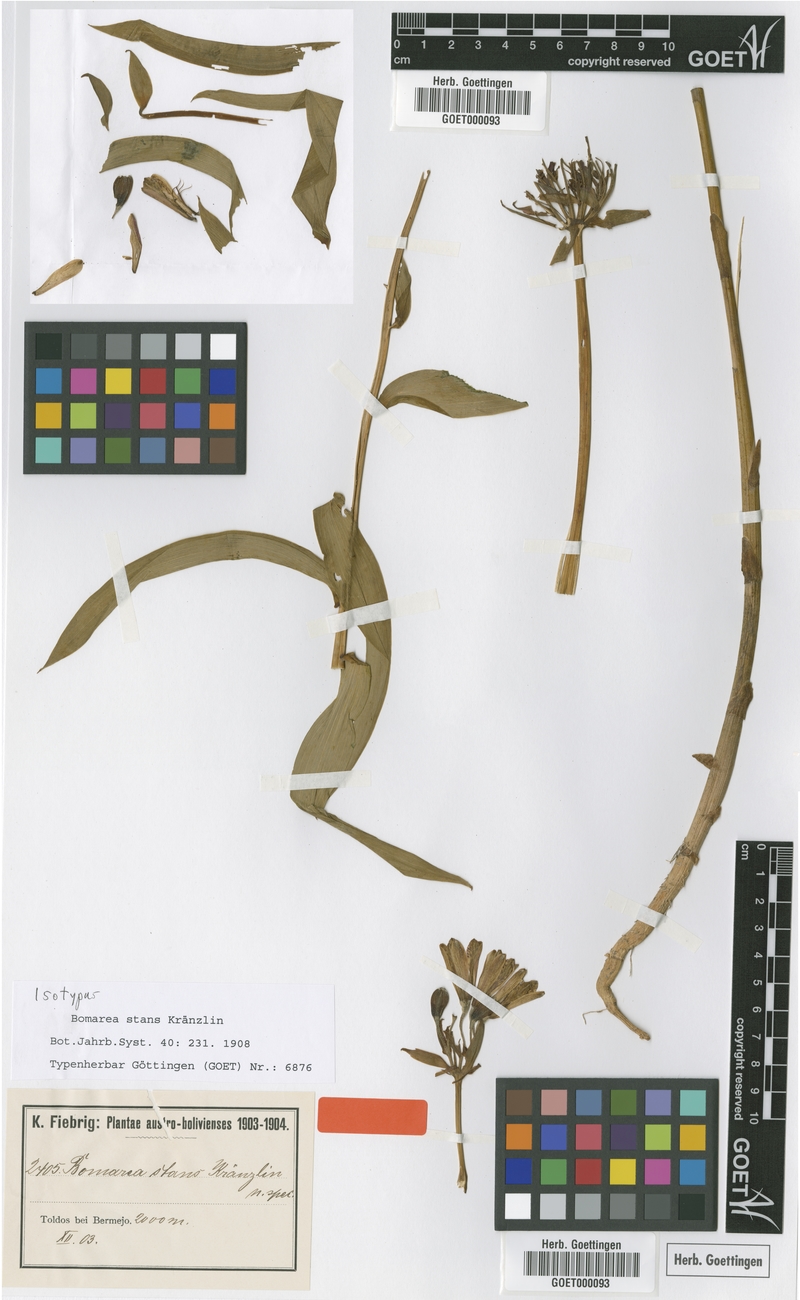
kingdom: Plantae
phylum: Tracheophyta
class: Liliopsida
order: Liliales
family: Alstroemeriaceae
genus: Bomarea
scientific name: Bomarea stans
